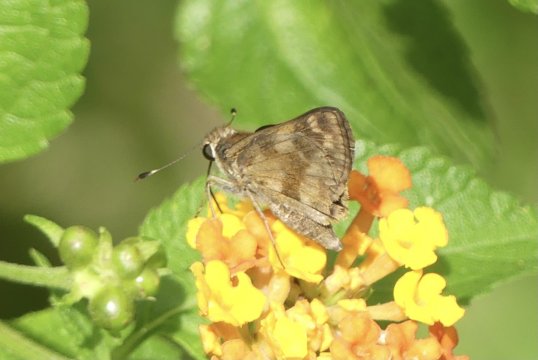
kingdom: Animalia
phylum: Arthropoda
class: Insecta
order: Lepidoptera
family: Hesperiidae
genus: Pompeius
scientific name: Pompeius pompeius
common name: Pompeius Skipper
